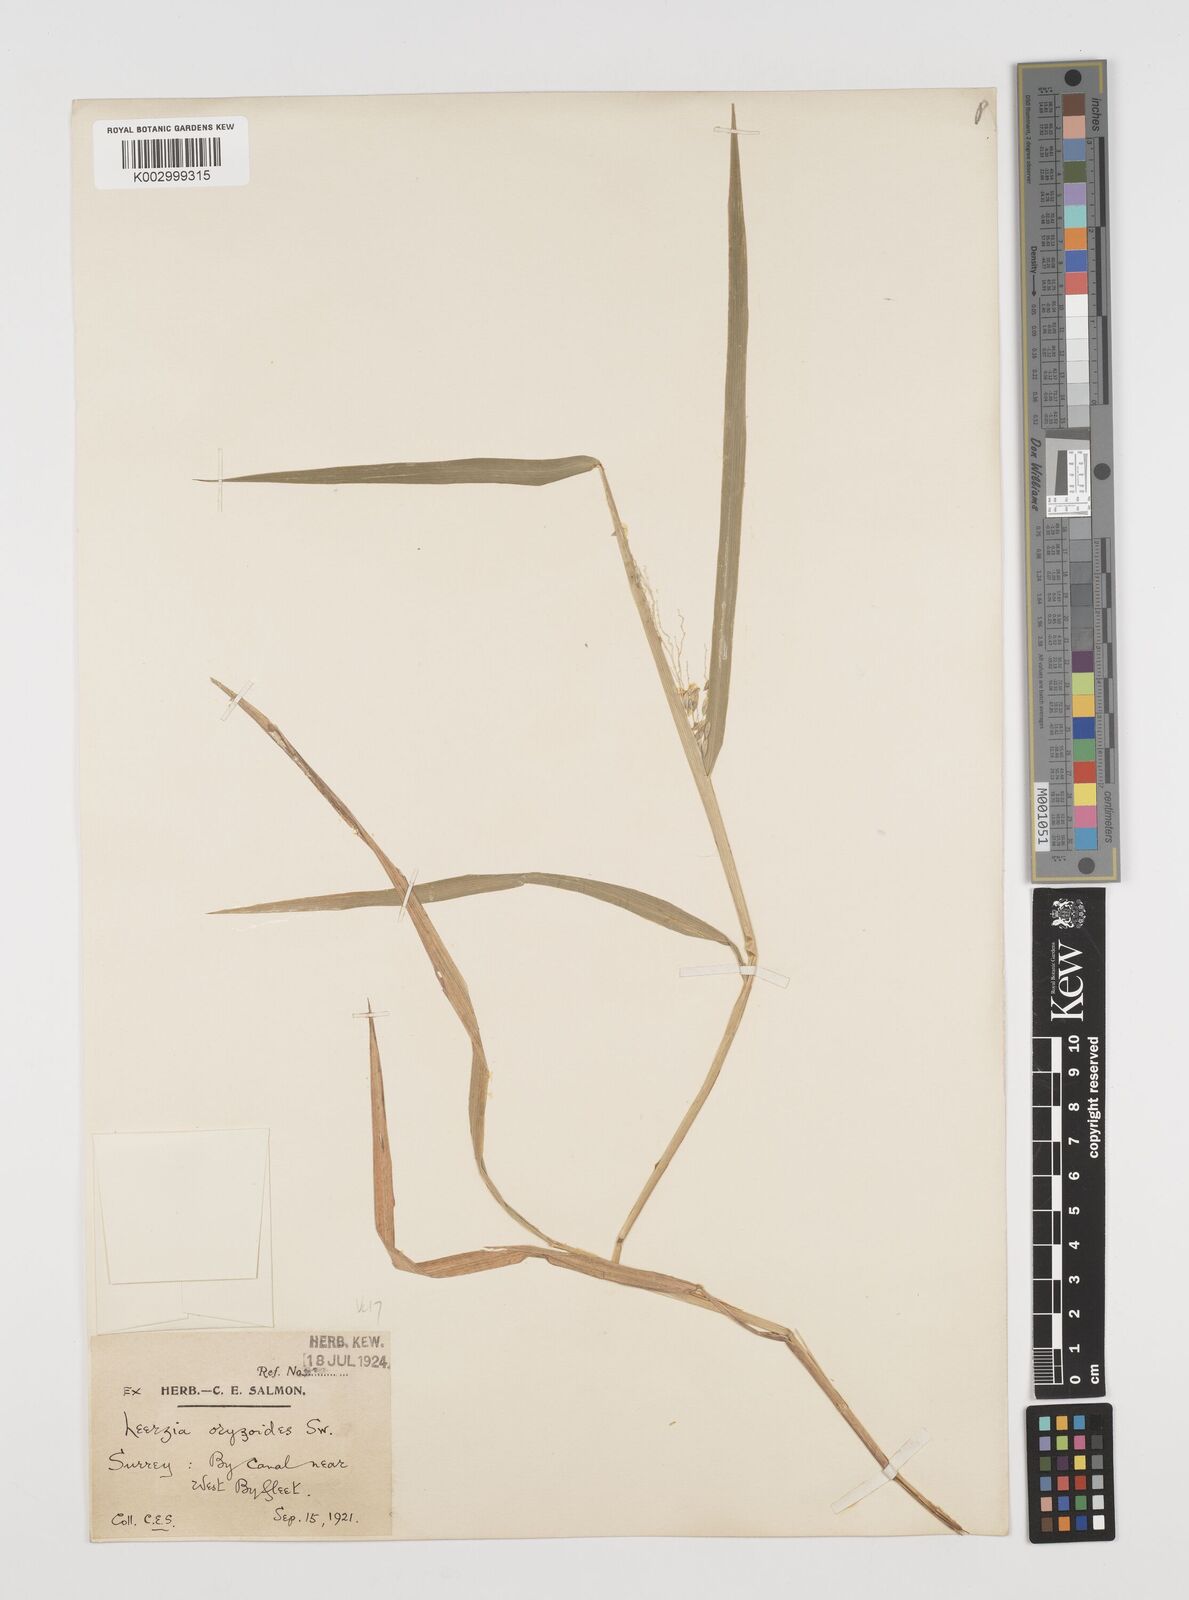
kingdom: Plantae
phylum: Tracheophyta
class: Liliopsida
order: Poales
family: Poaceae
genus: Leersia
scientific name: Leersia oryzoides
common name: Cut-grass
